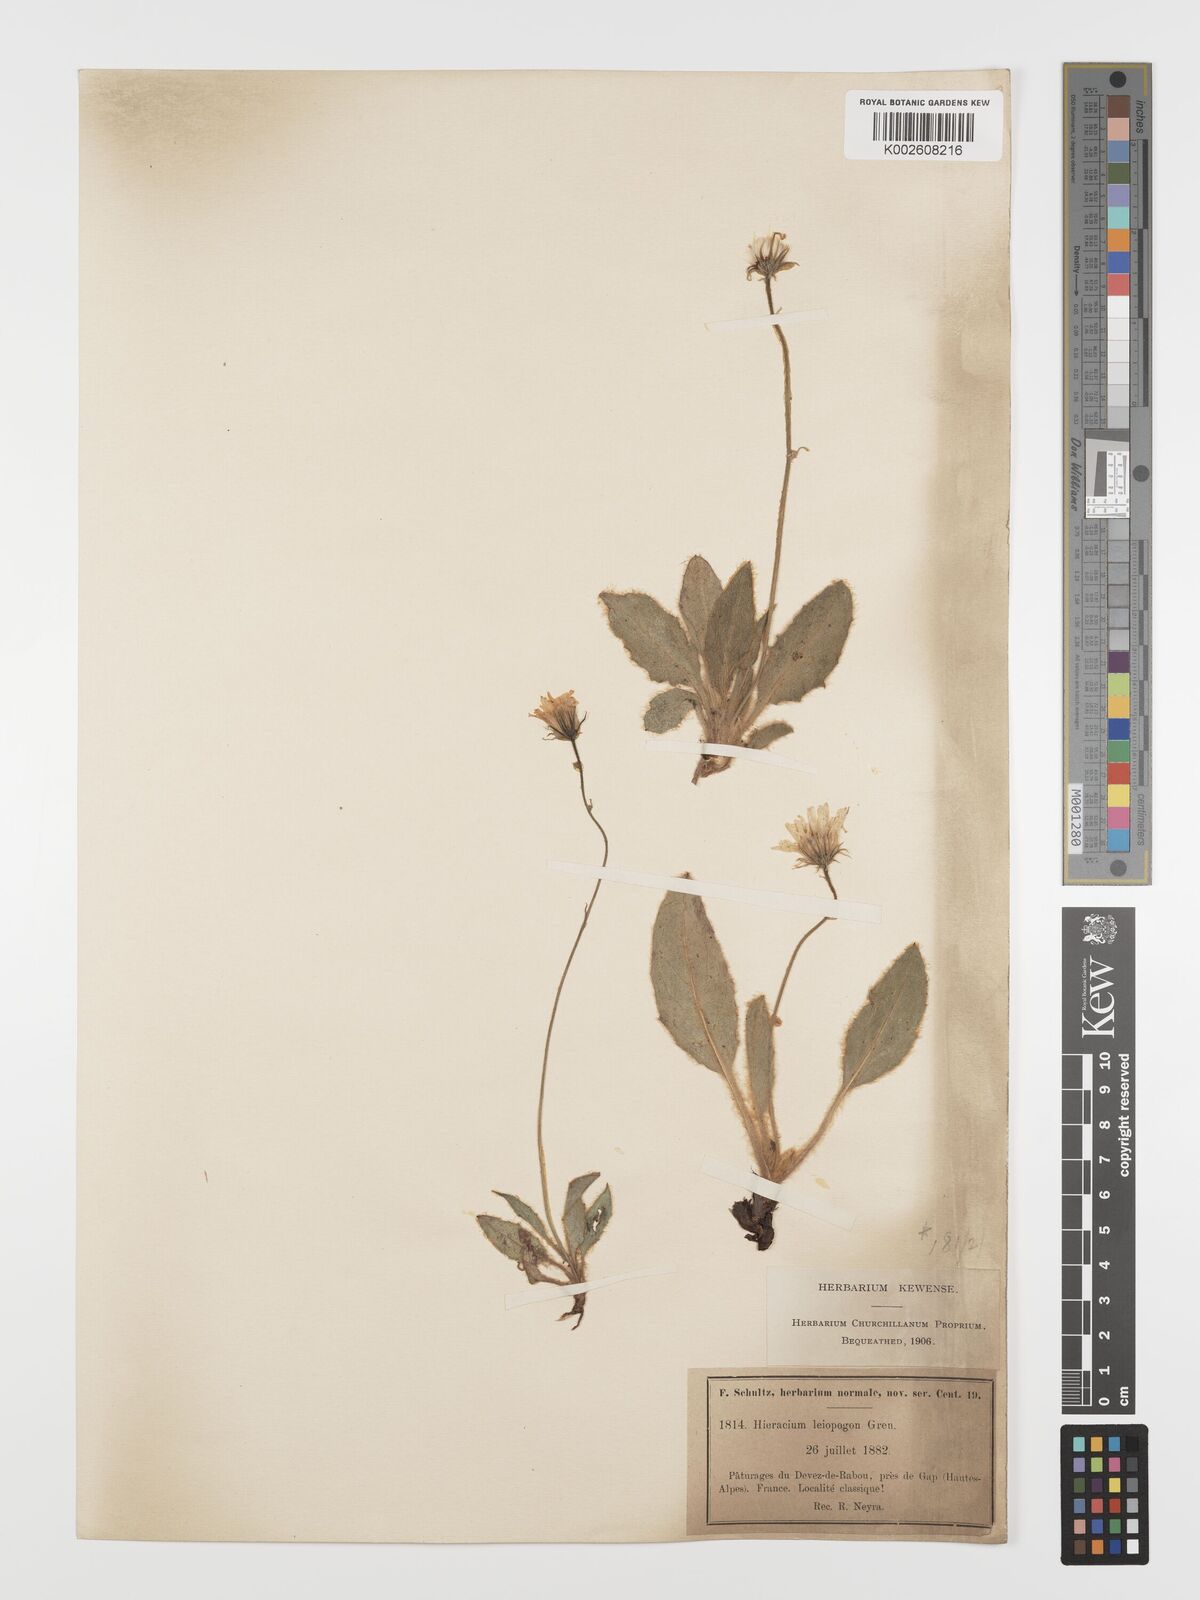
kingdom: Plantae
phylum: Tracheophyta
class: Magnoliopsida
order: Asterales
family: Asteraceae
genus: Hieracium
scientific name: Hieracium leiopogon
